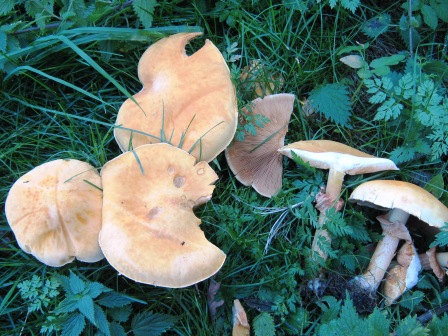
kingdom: Fungi
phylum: Basidiomycota
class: Agaricomycetes
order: Agaricales
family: Tricholomataceae
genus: Phaeolepiota
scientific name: Phaeolepiota aurea
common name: gyldenhat
